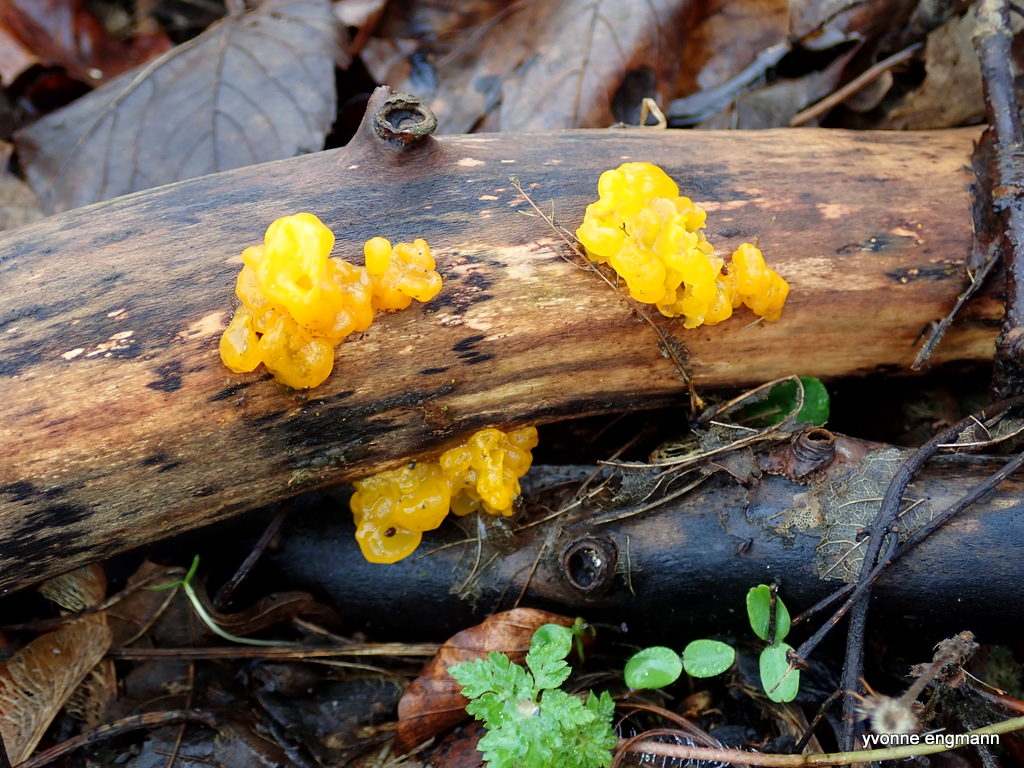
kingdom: Fungi
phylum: Basidiomycota
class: Tremellomycetes
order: Tremellales
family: Tremellaceae
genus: Tremella
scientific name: Tremella mesenterica
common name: gul bævresvamp
